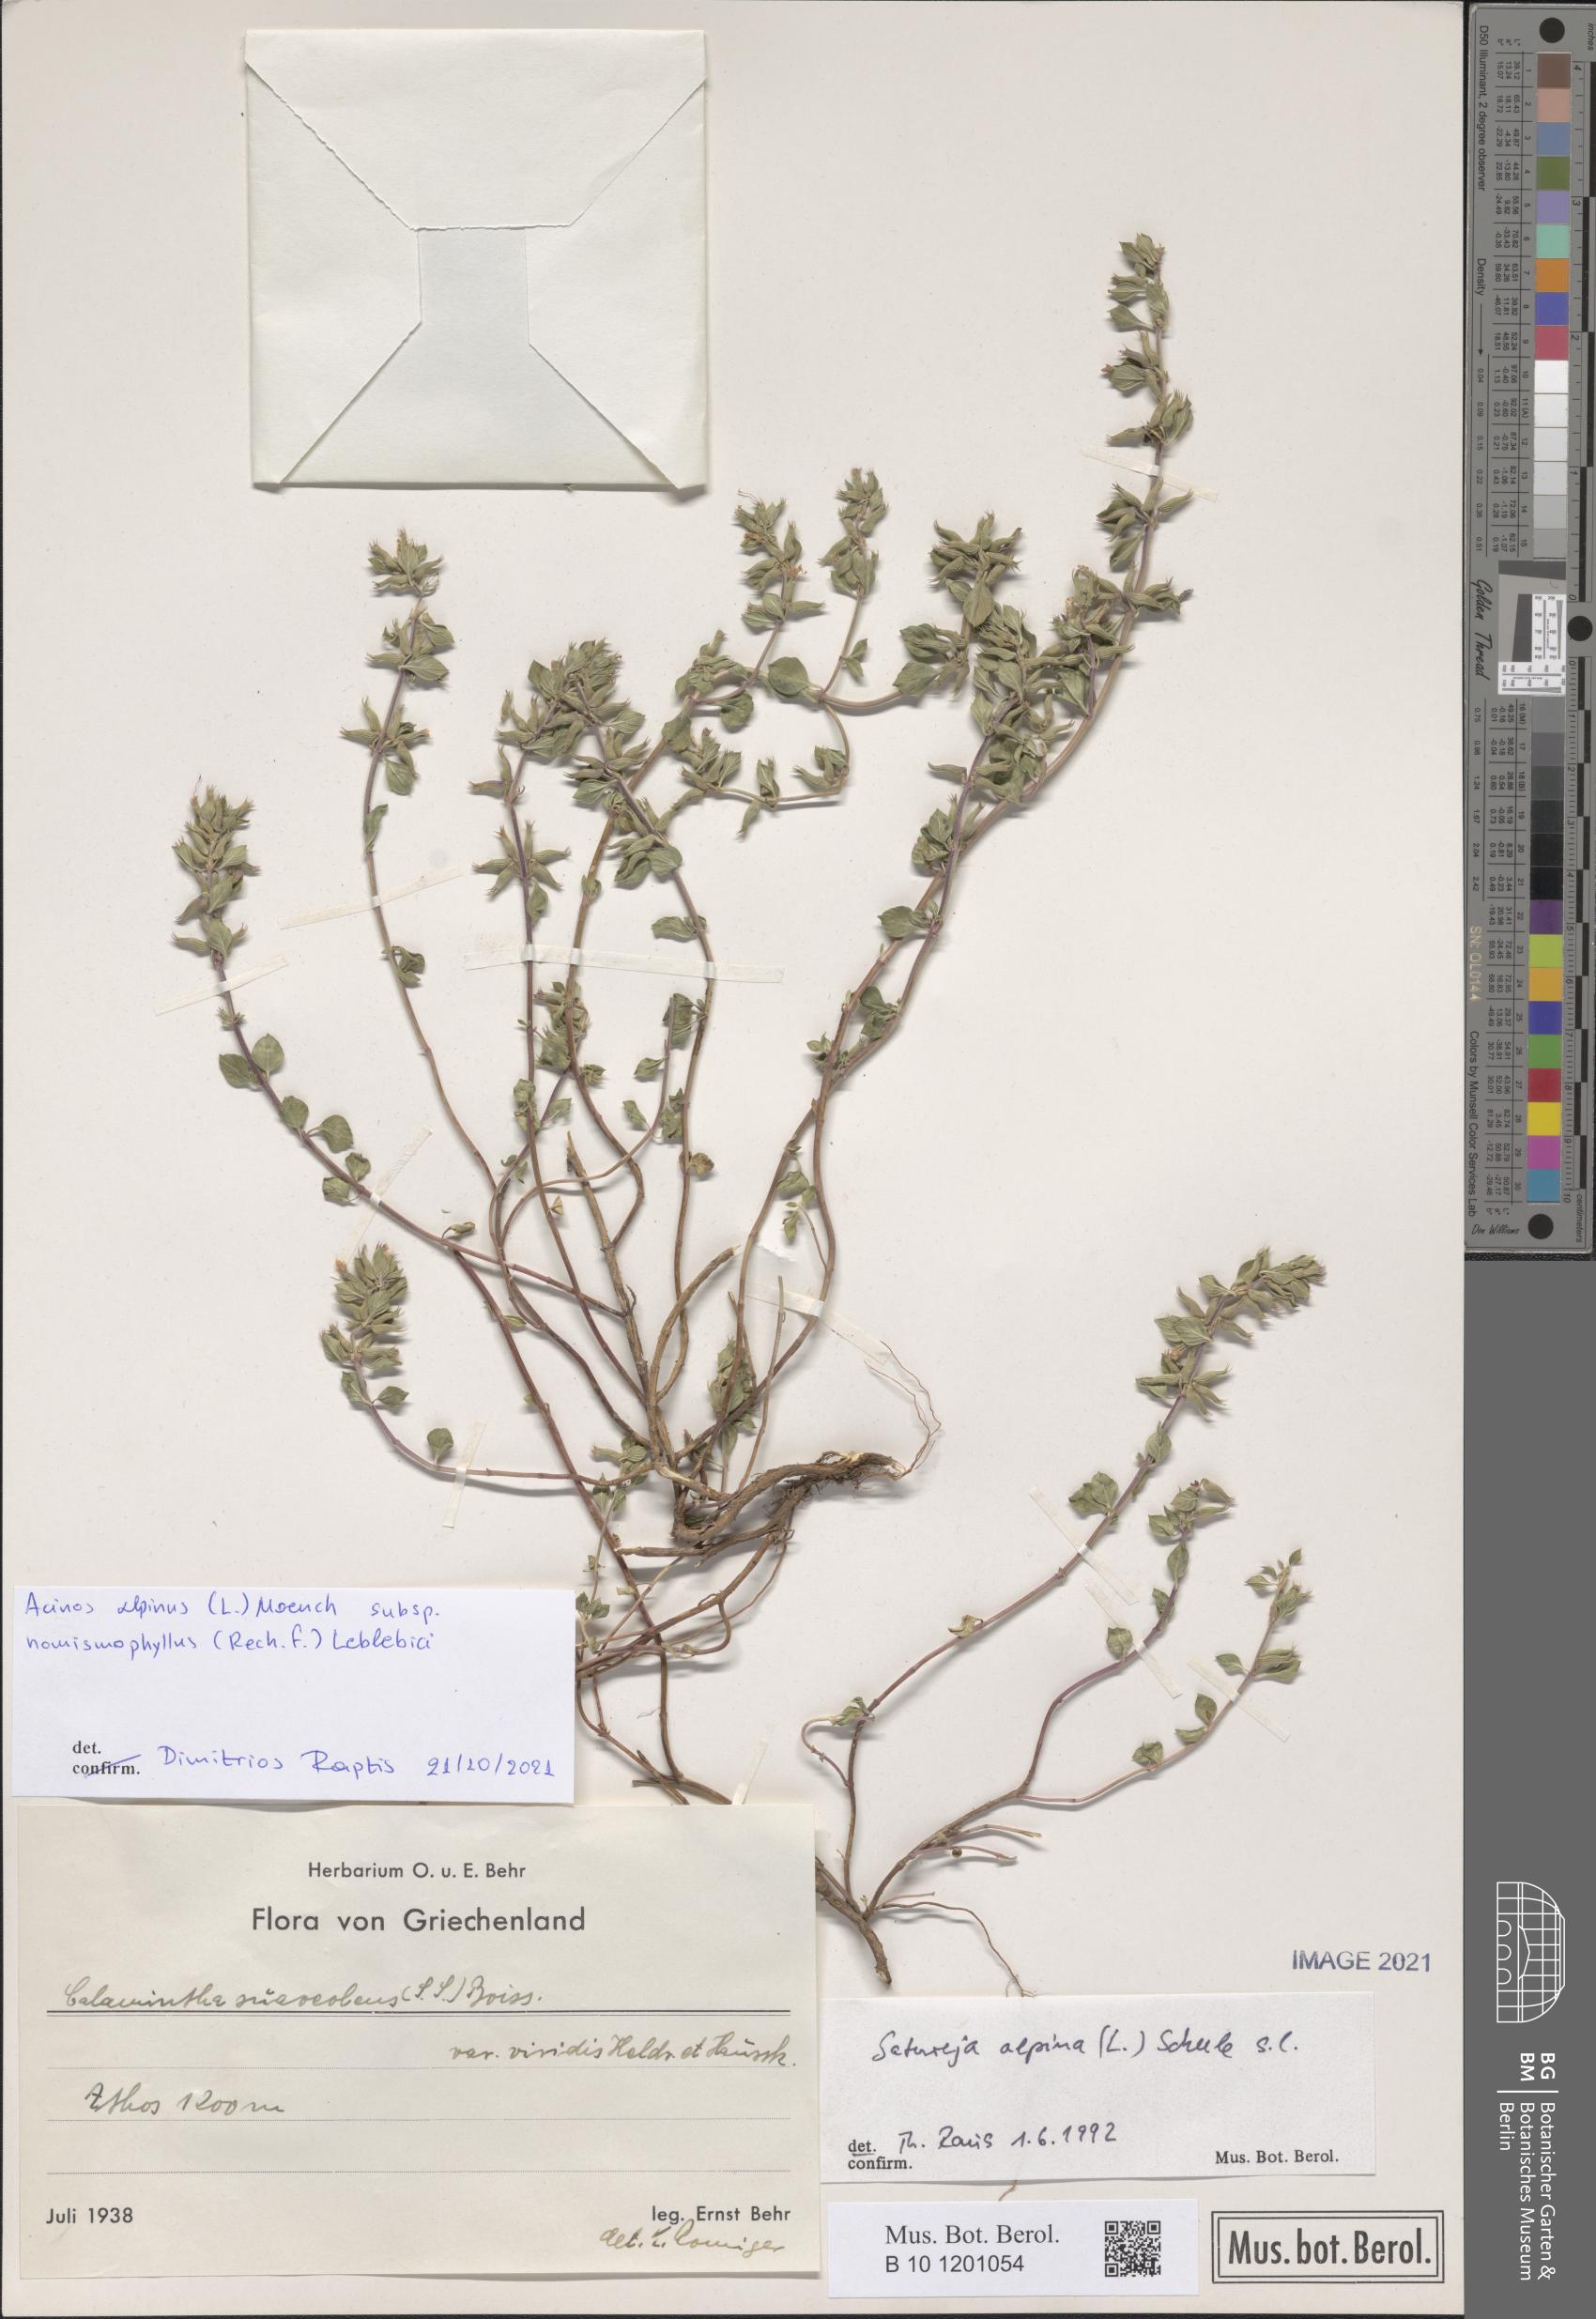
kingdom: Plantae
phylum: Tracheophyta
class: Magnoliopsida
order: Lamiales
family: Lamiaceae
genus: Clinopodium
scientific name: Clinopodium alpinum
